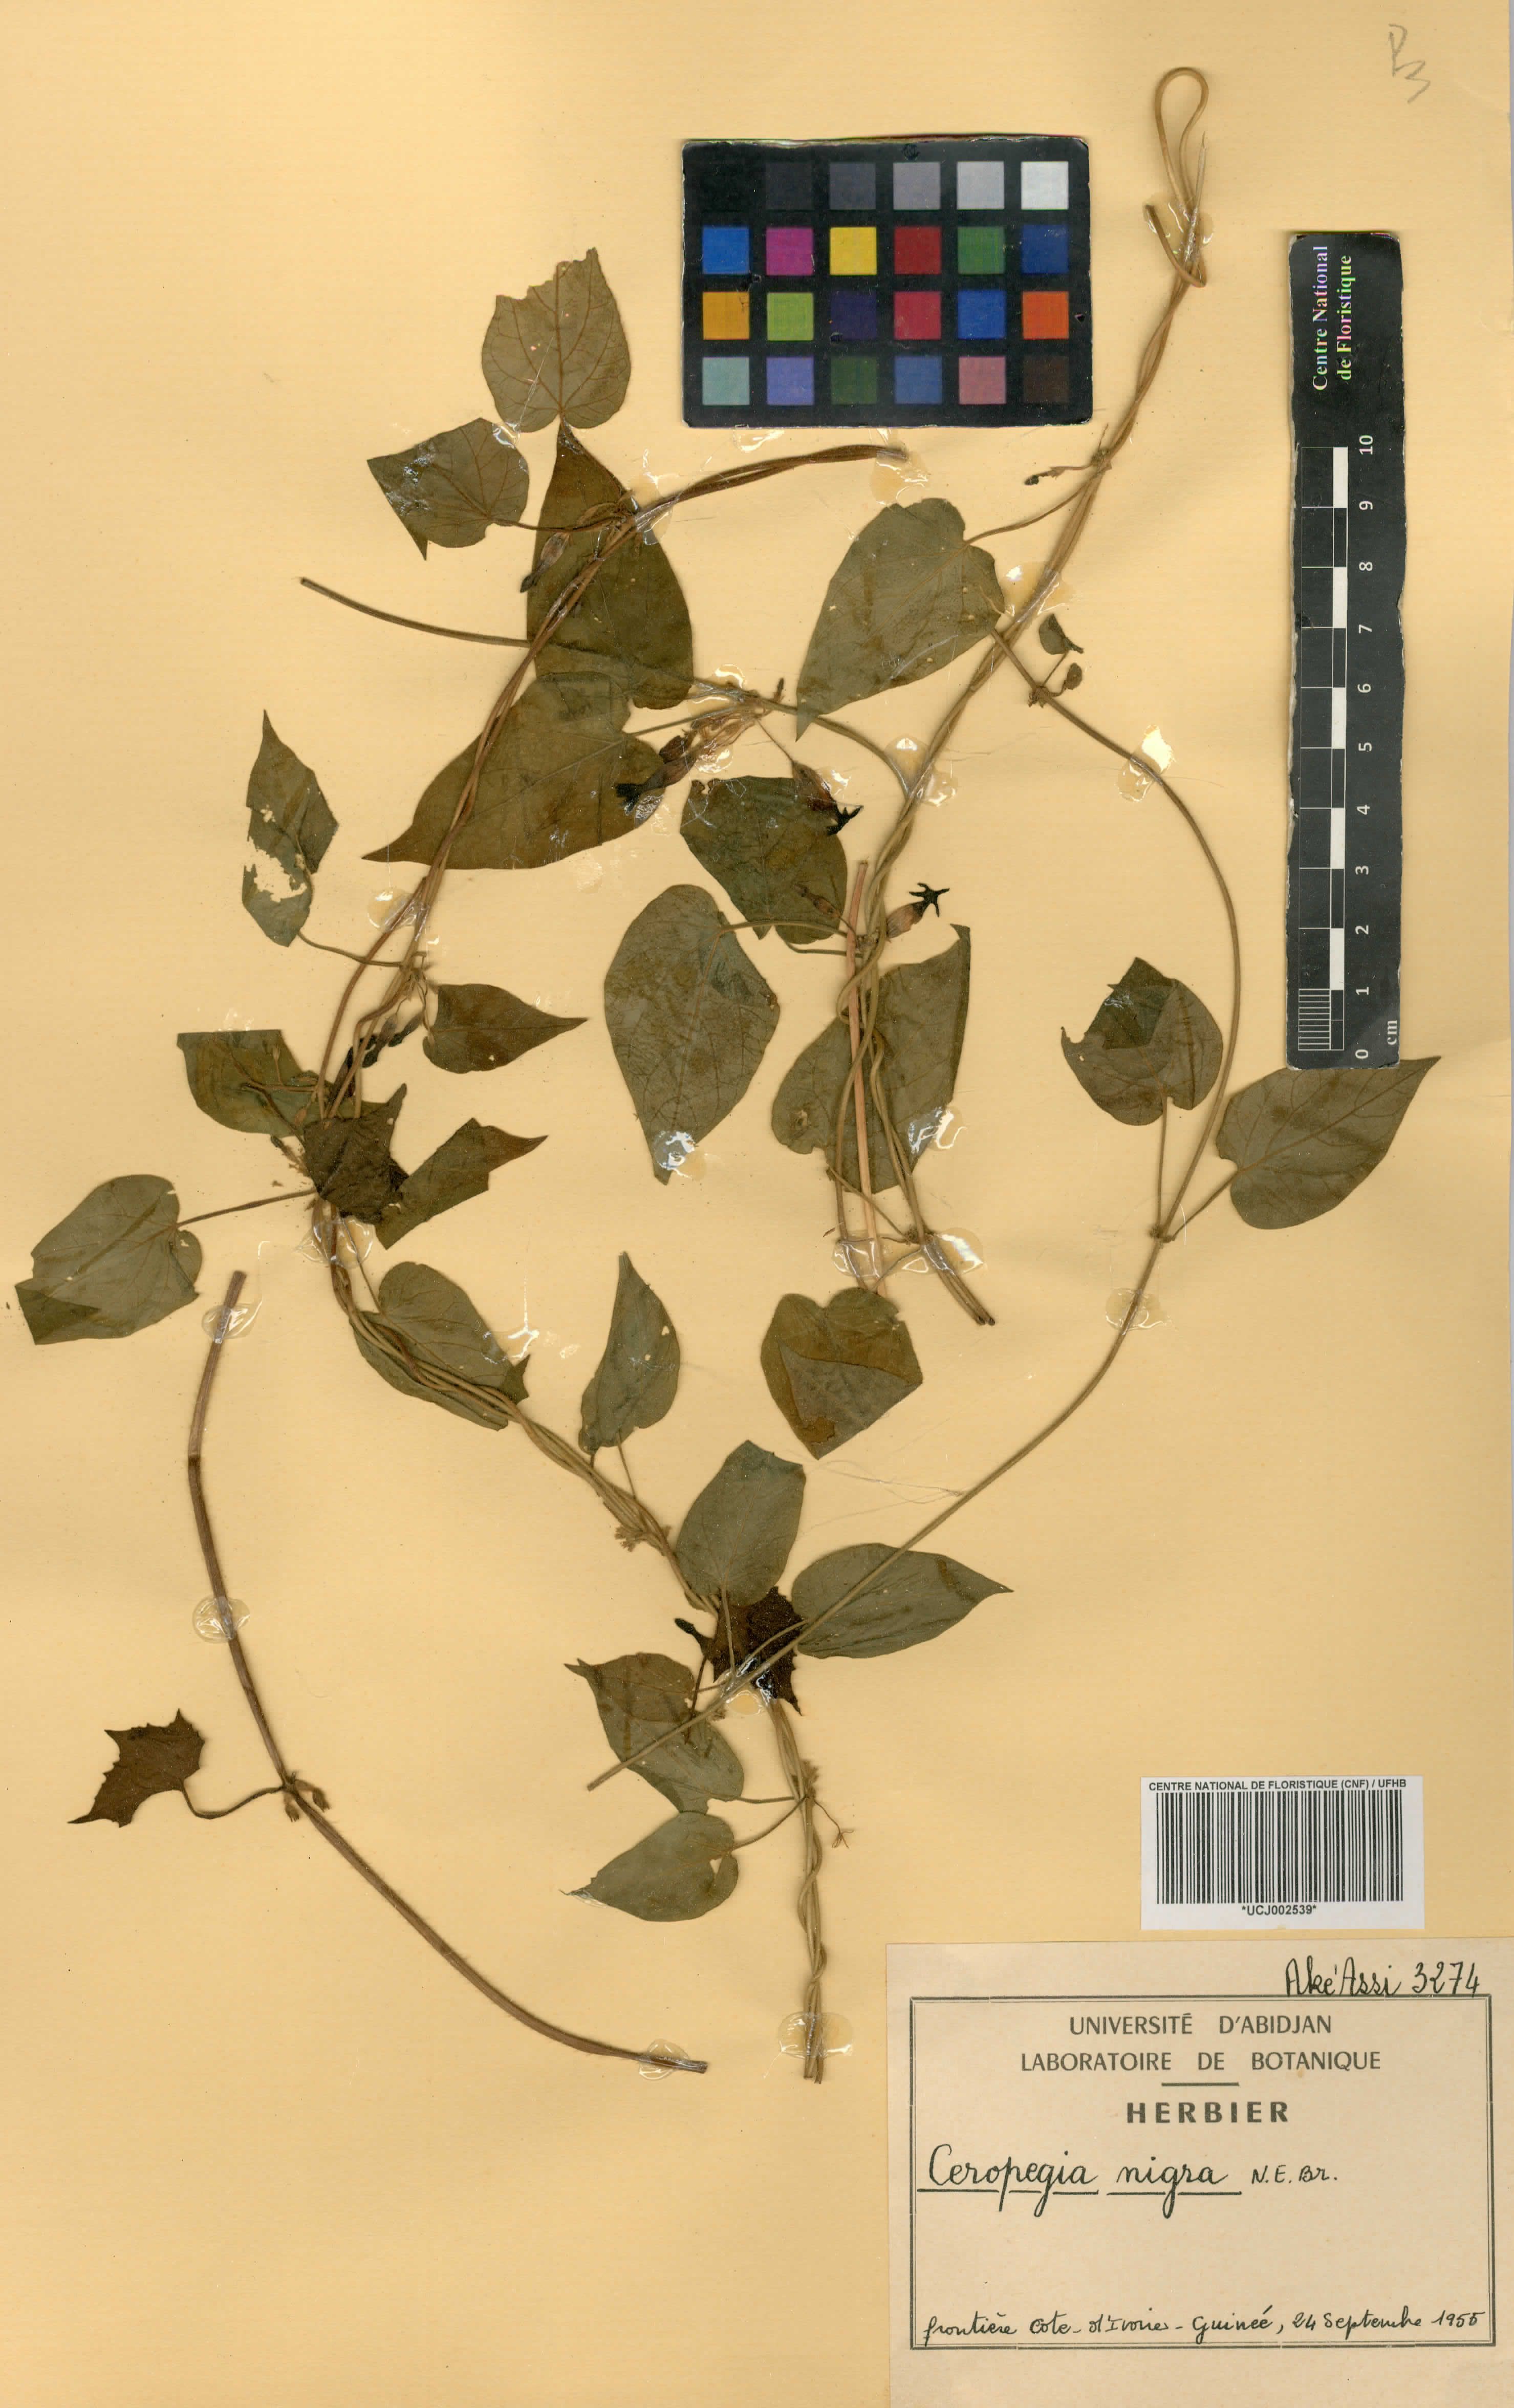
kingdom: Plantae
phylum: Tracheophyta
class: Magnoliopsida
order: Gentianales
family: Apocynaceae
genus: Ceropegia
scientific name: Ceropegia nigra
